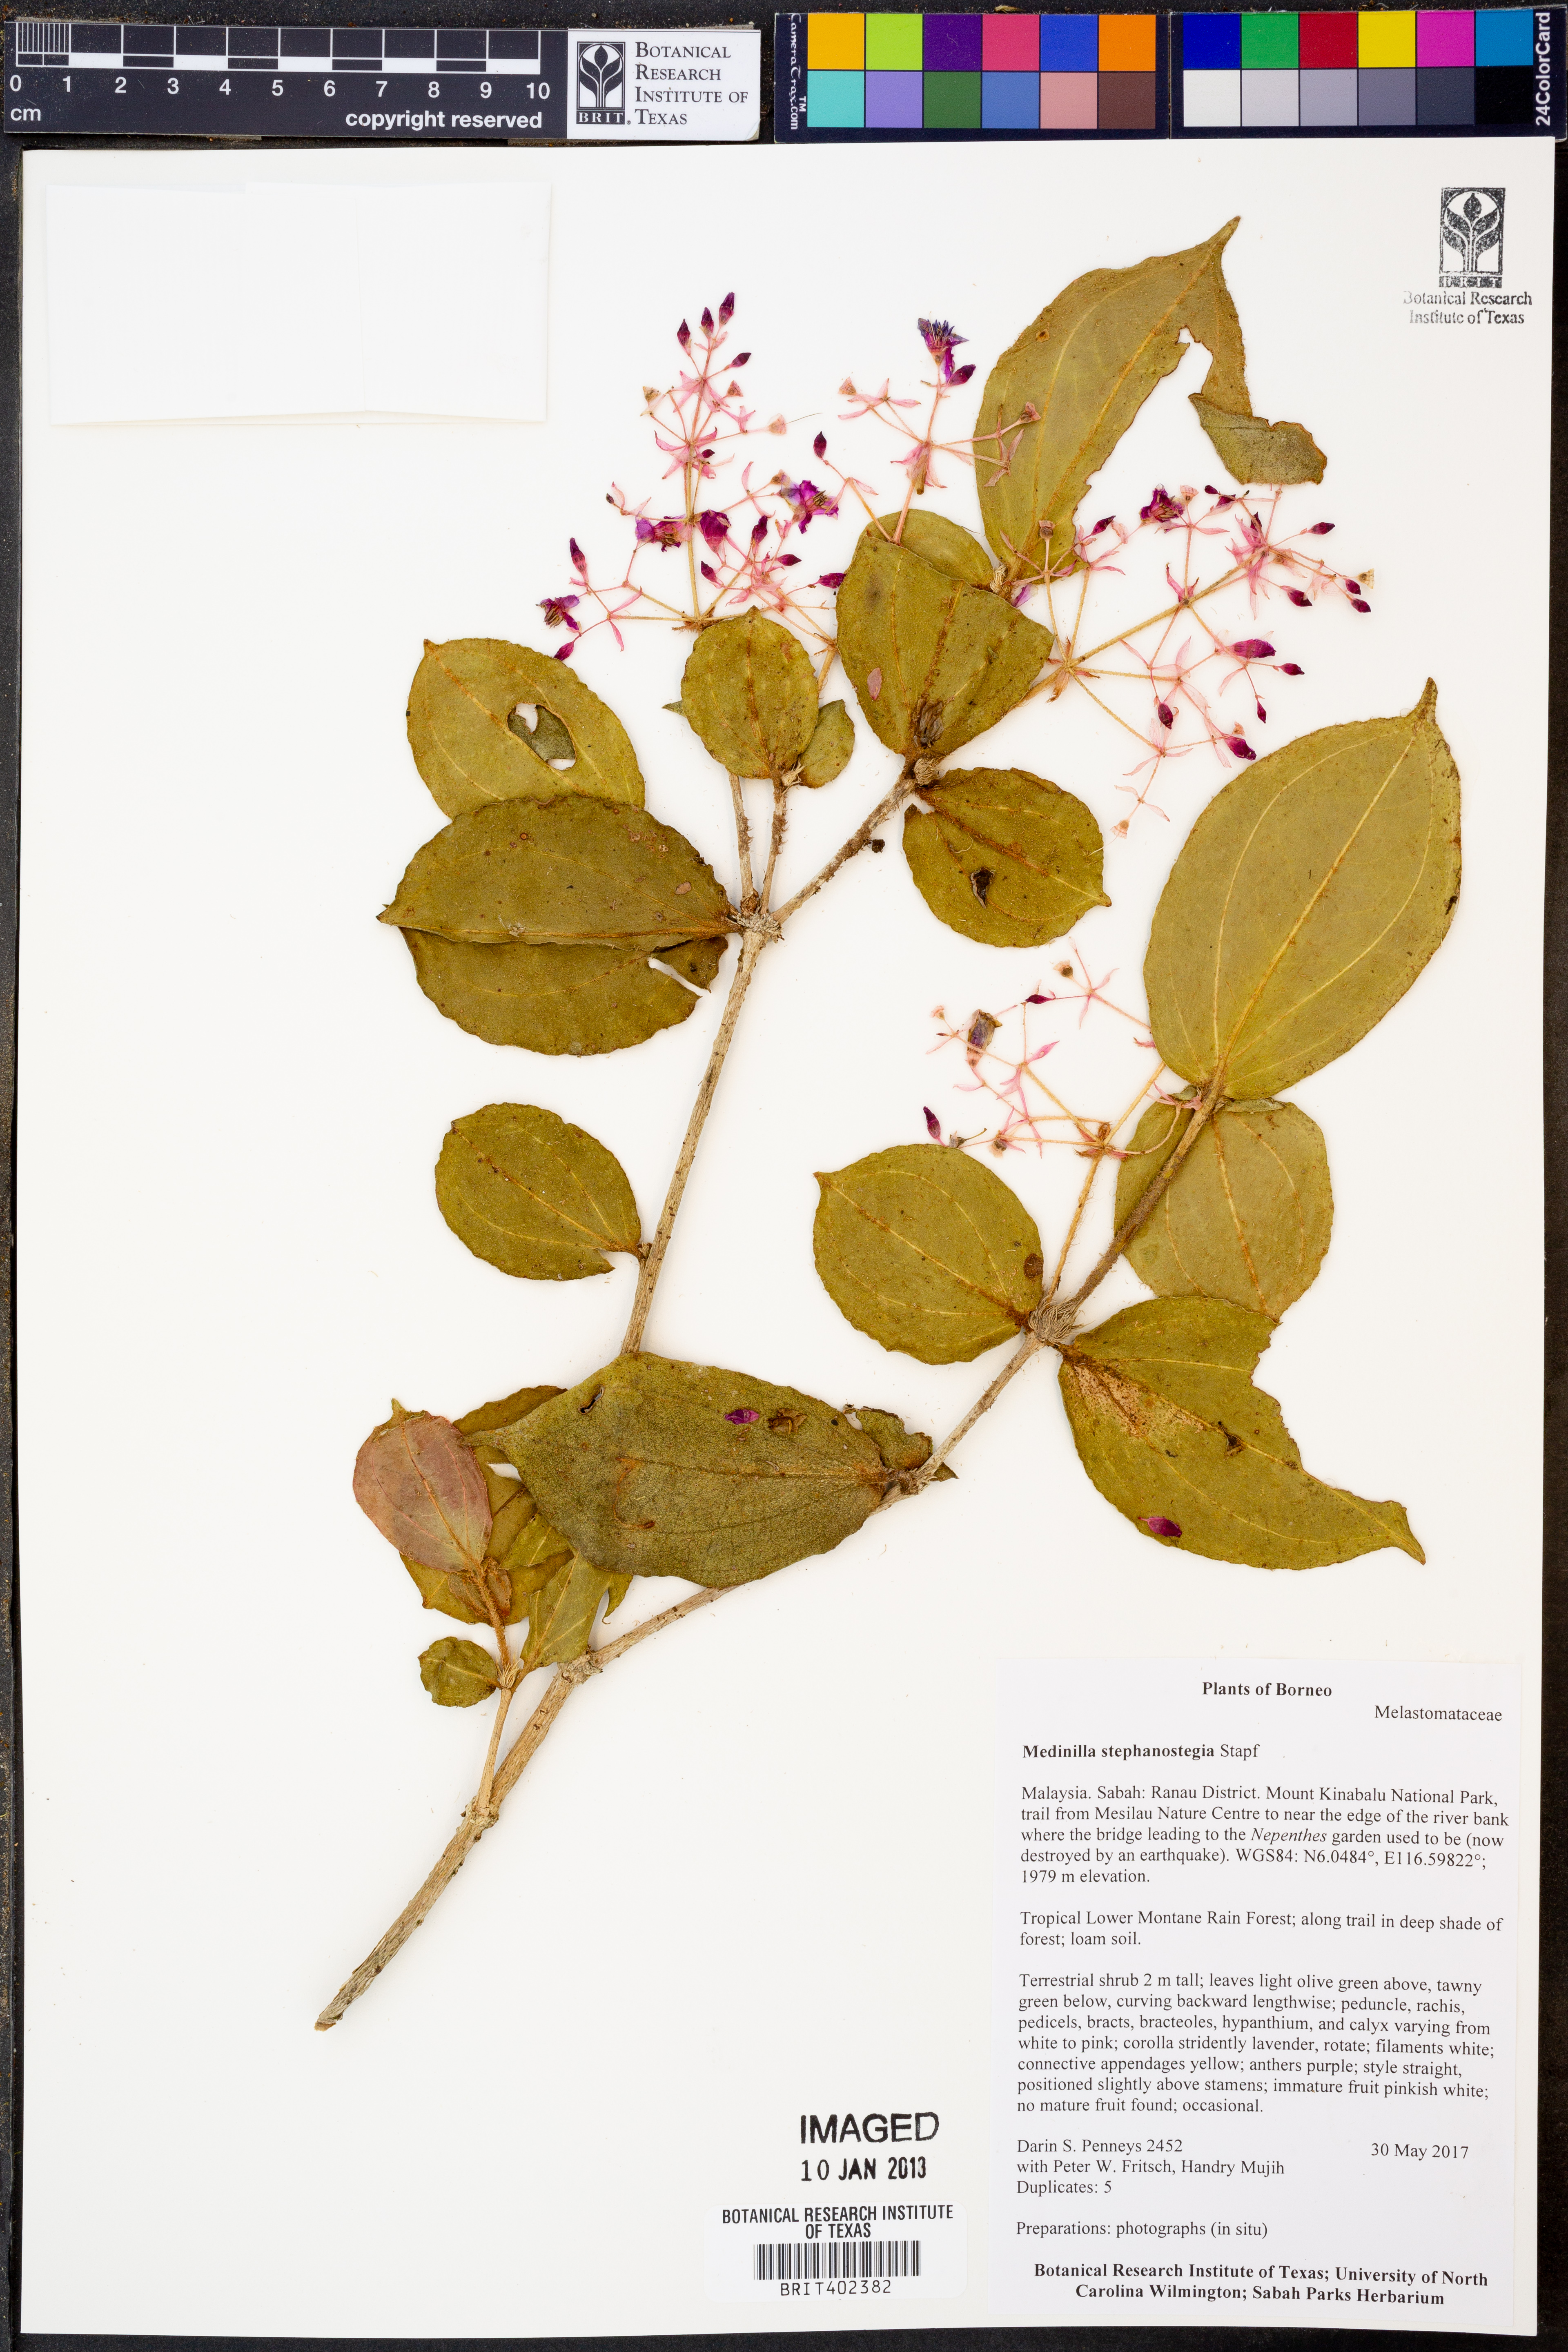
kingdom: Plantae
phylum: Tracheophyta
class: Magnoliopsida
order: Myrtales
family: Melastomataceae
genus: Medinilla
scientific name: Medinilla
